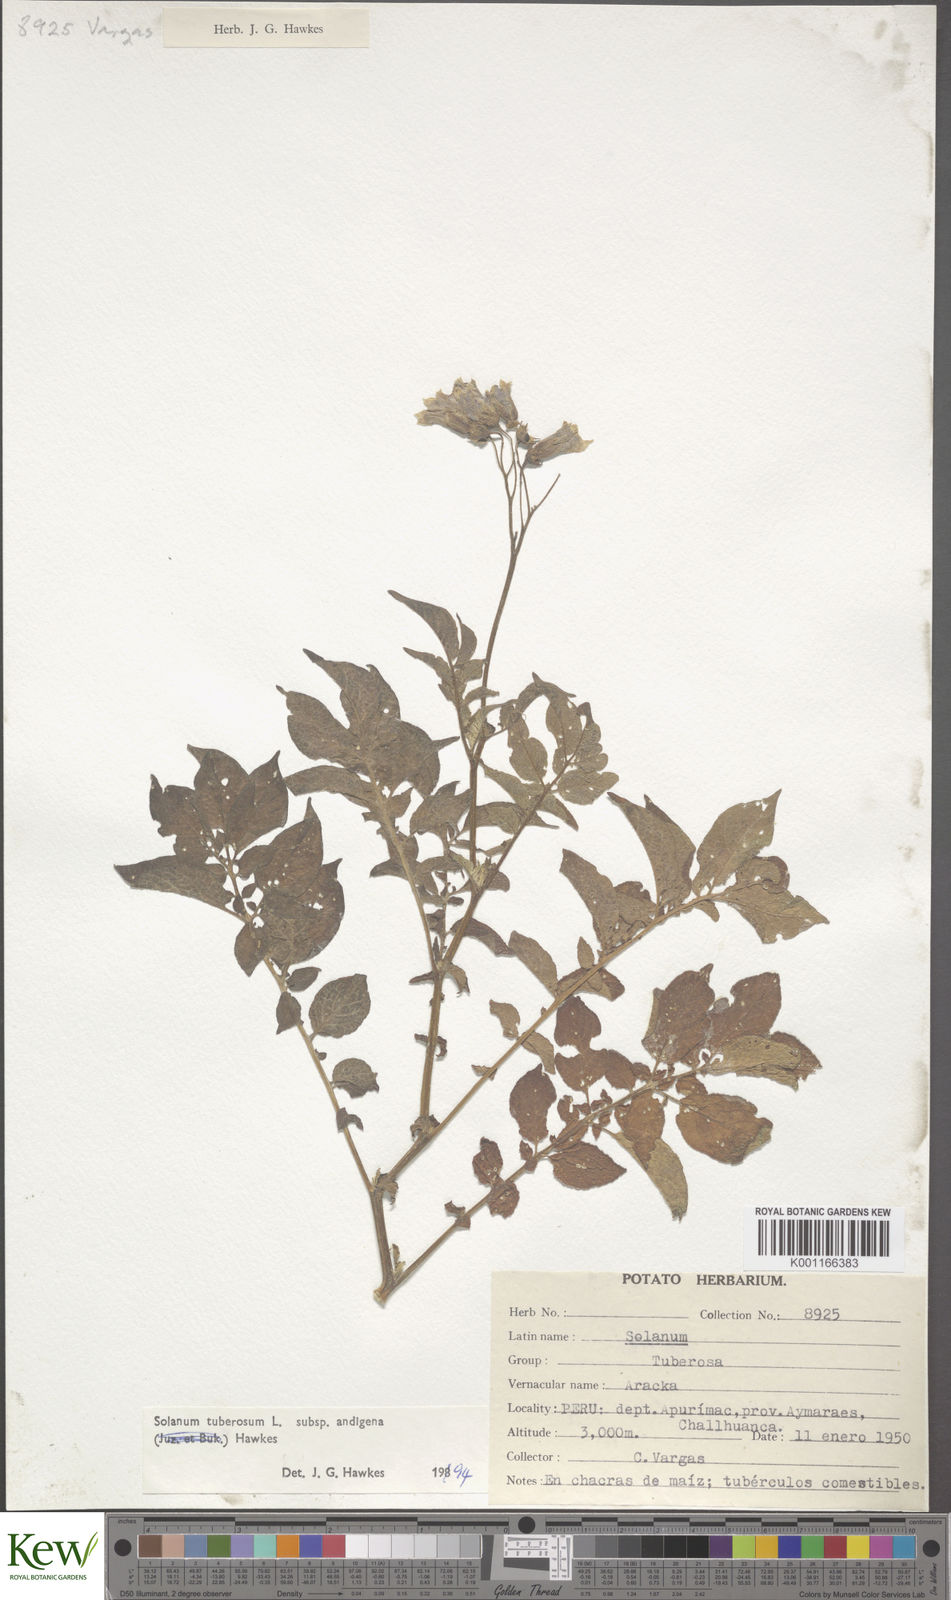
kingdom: Plantae
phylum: Tracheophyta
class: Magnoliopsida
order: Solanales
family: Solanaceae
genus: Solanum
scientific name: Solanum tuberosum
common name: Potato
